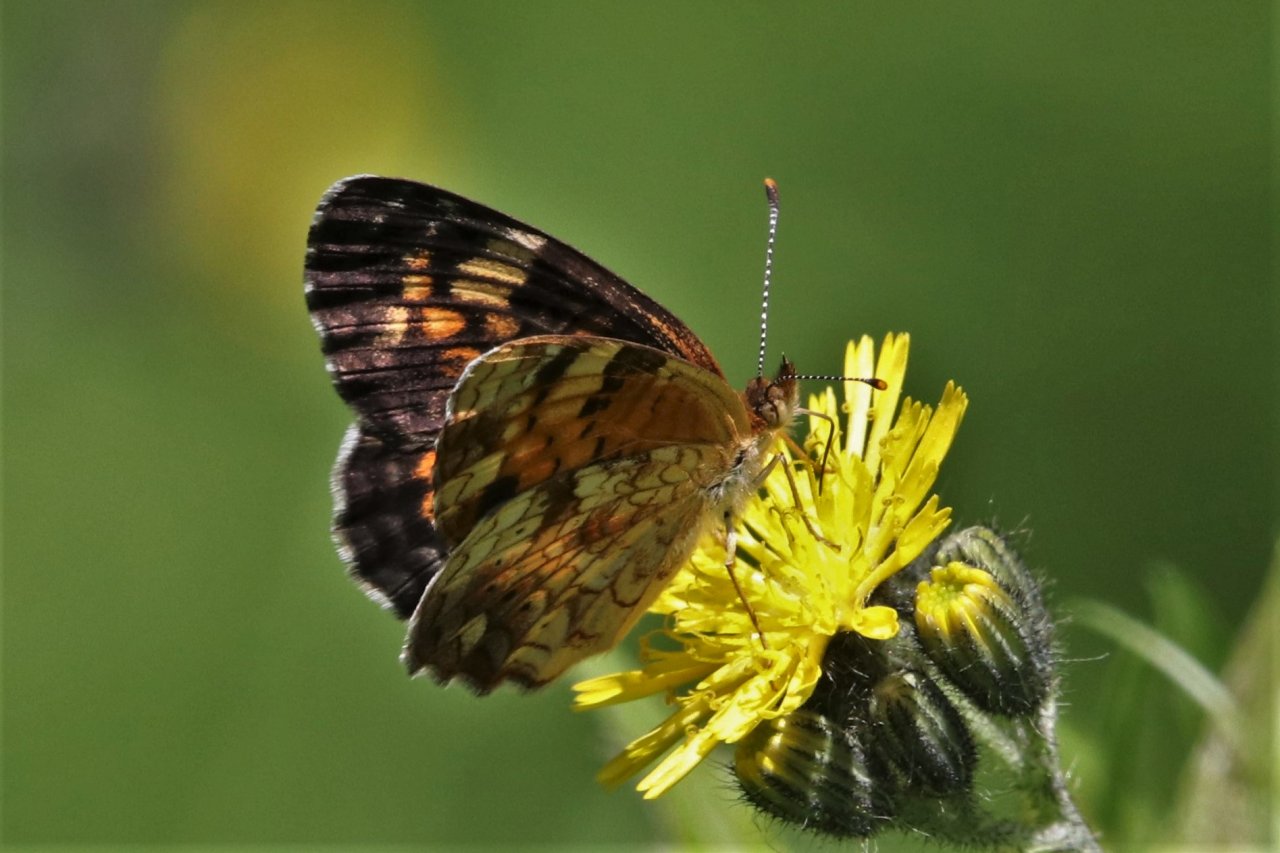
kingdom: Animalia
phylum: Arthropoda
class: Insecta
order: Lepidoptera
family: Nymphalidae
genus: Phyciodes
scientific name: Phyciodes tharos
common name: Northern Crescent
